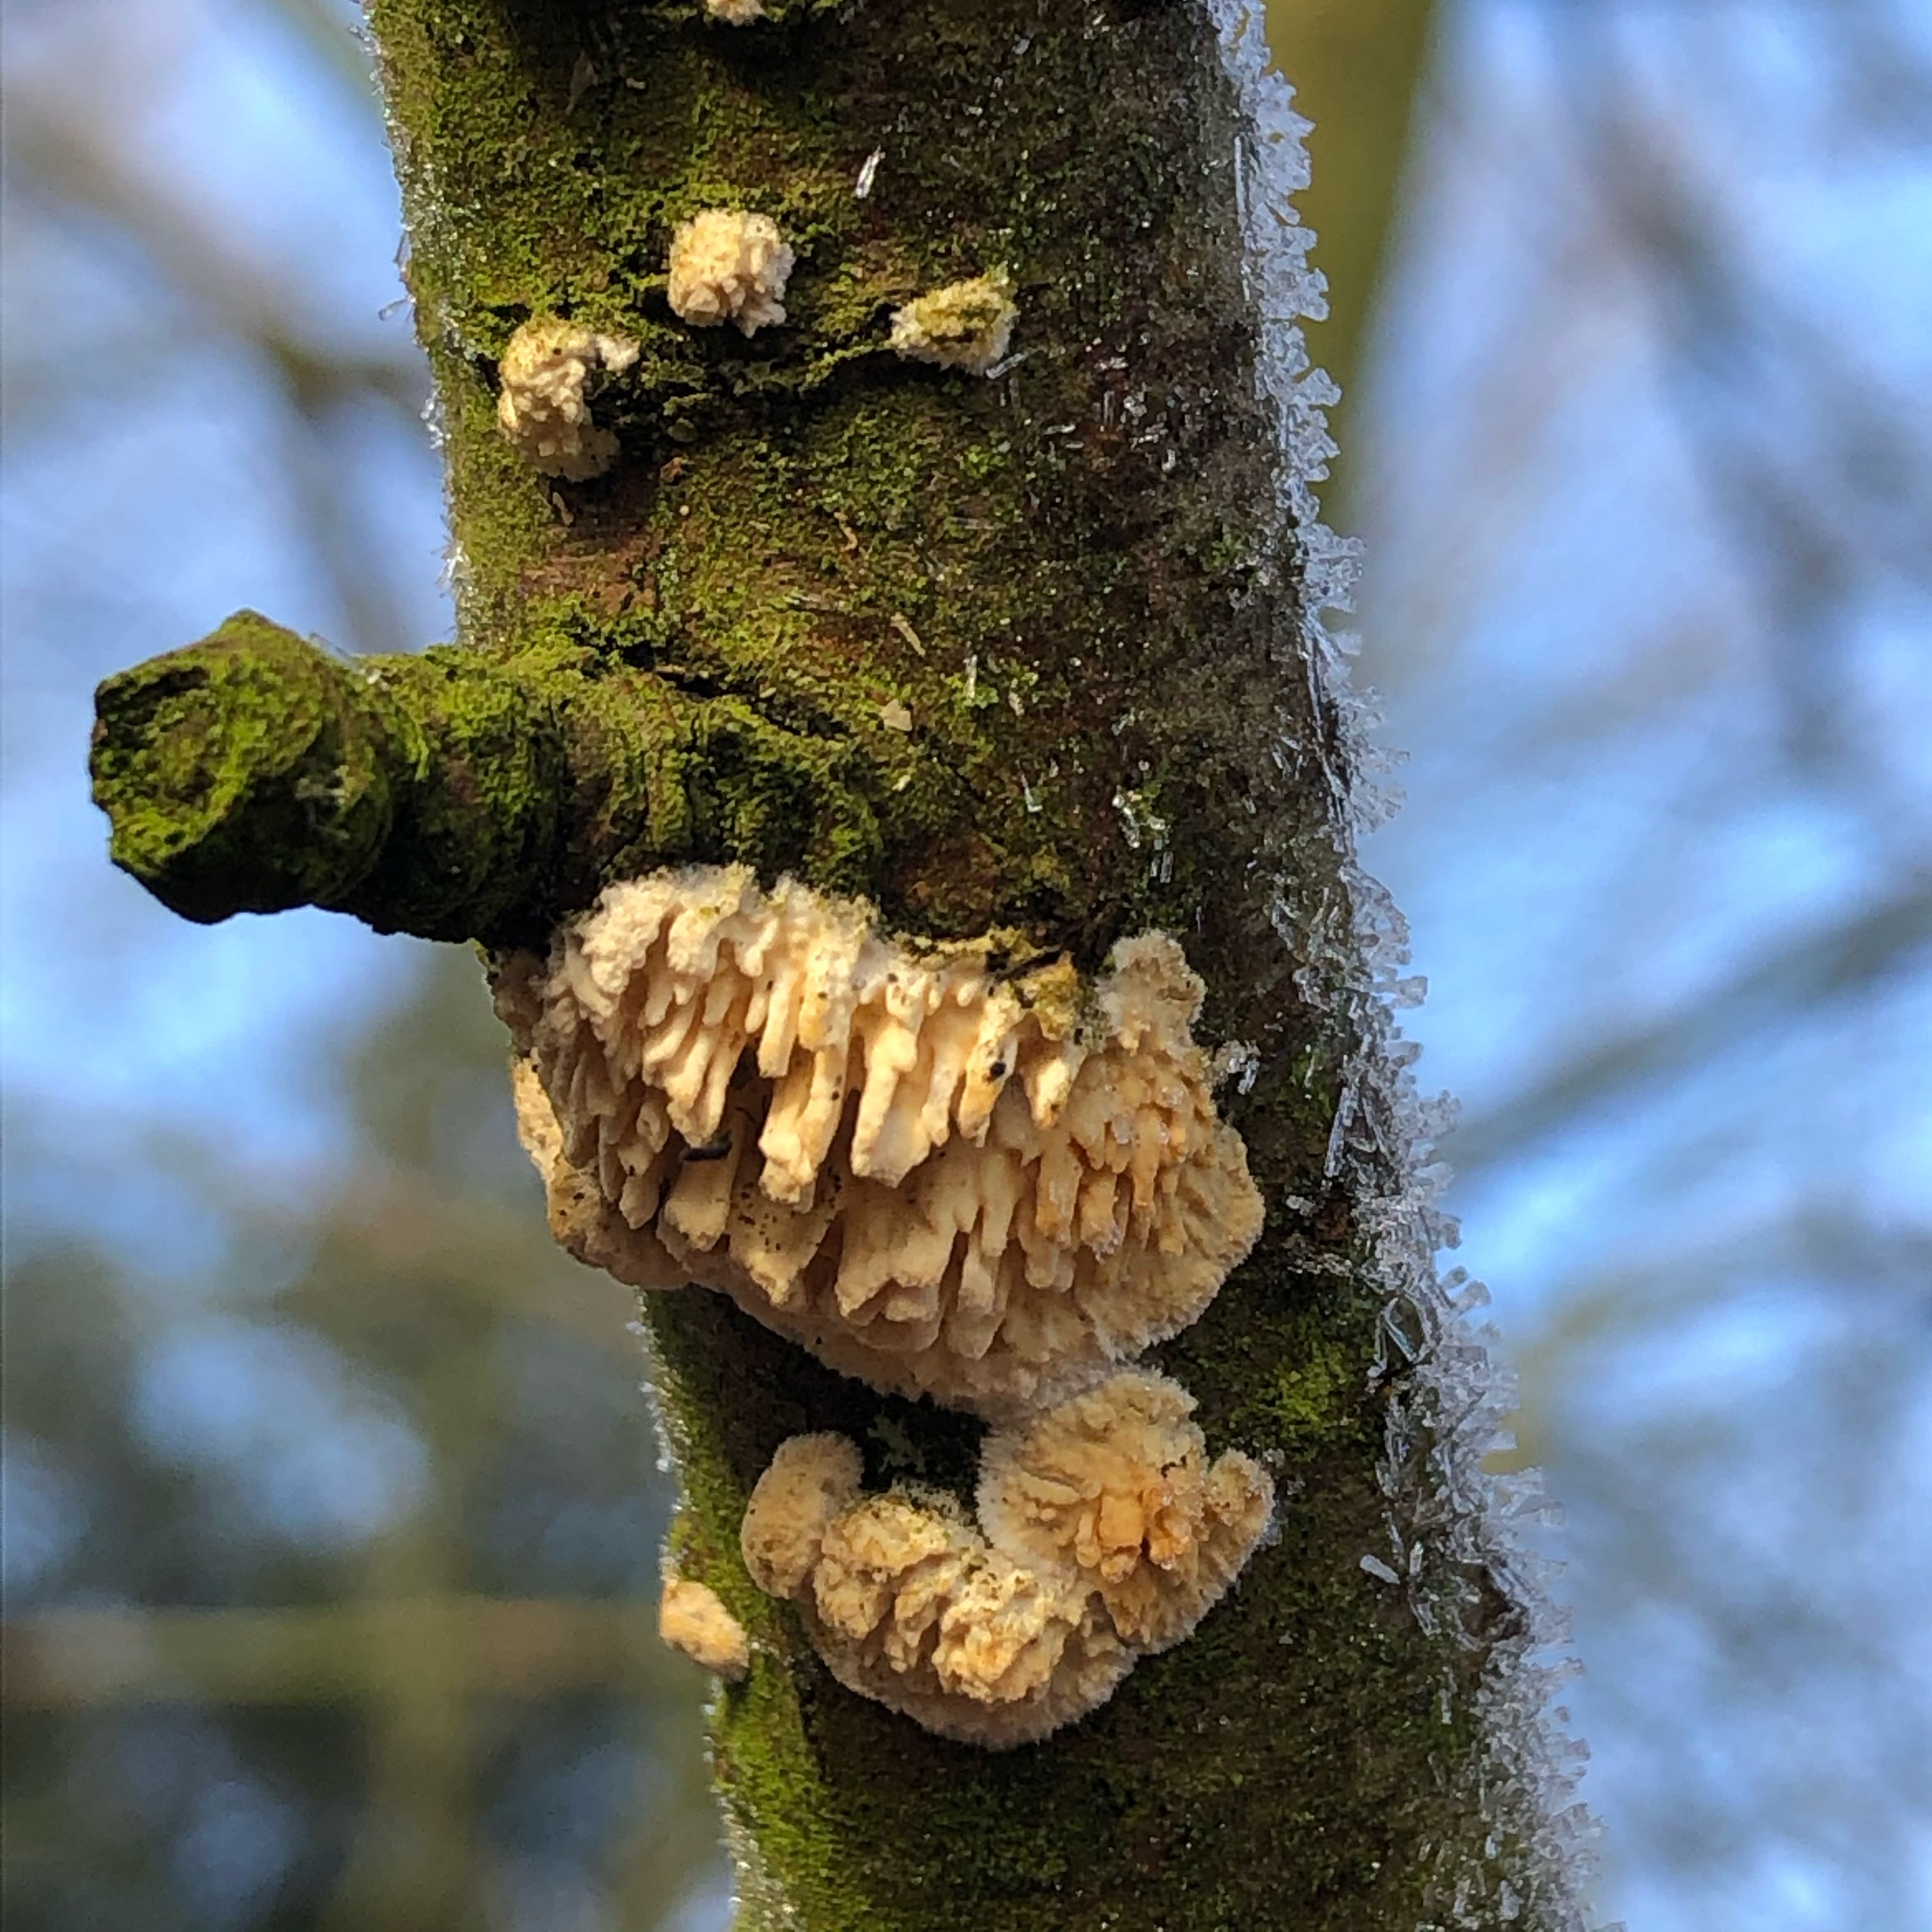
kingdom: Fungi
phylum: Basidiomycota
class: Agaricomycetes
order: Hymenochaetales
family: Schizoporaceae
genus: Xylodon
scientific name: Xylodon radula
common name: grovtandet kalkskind
